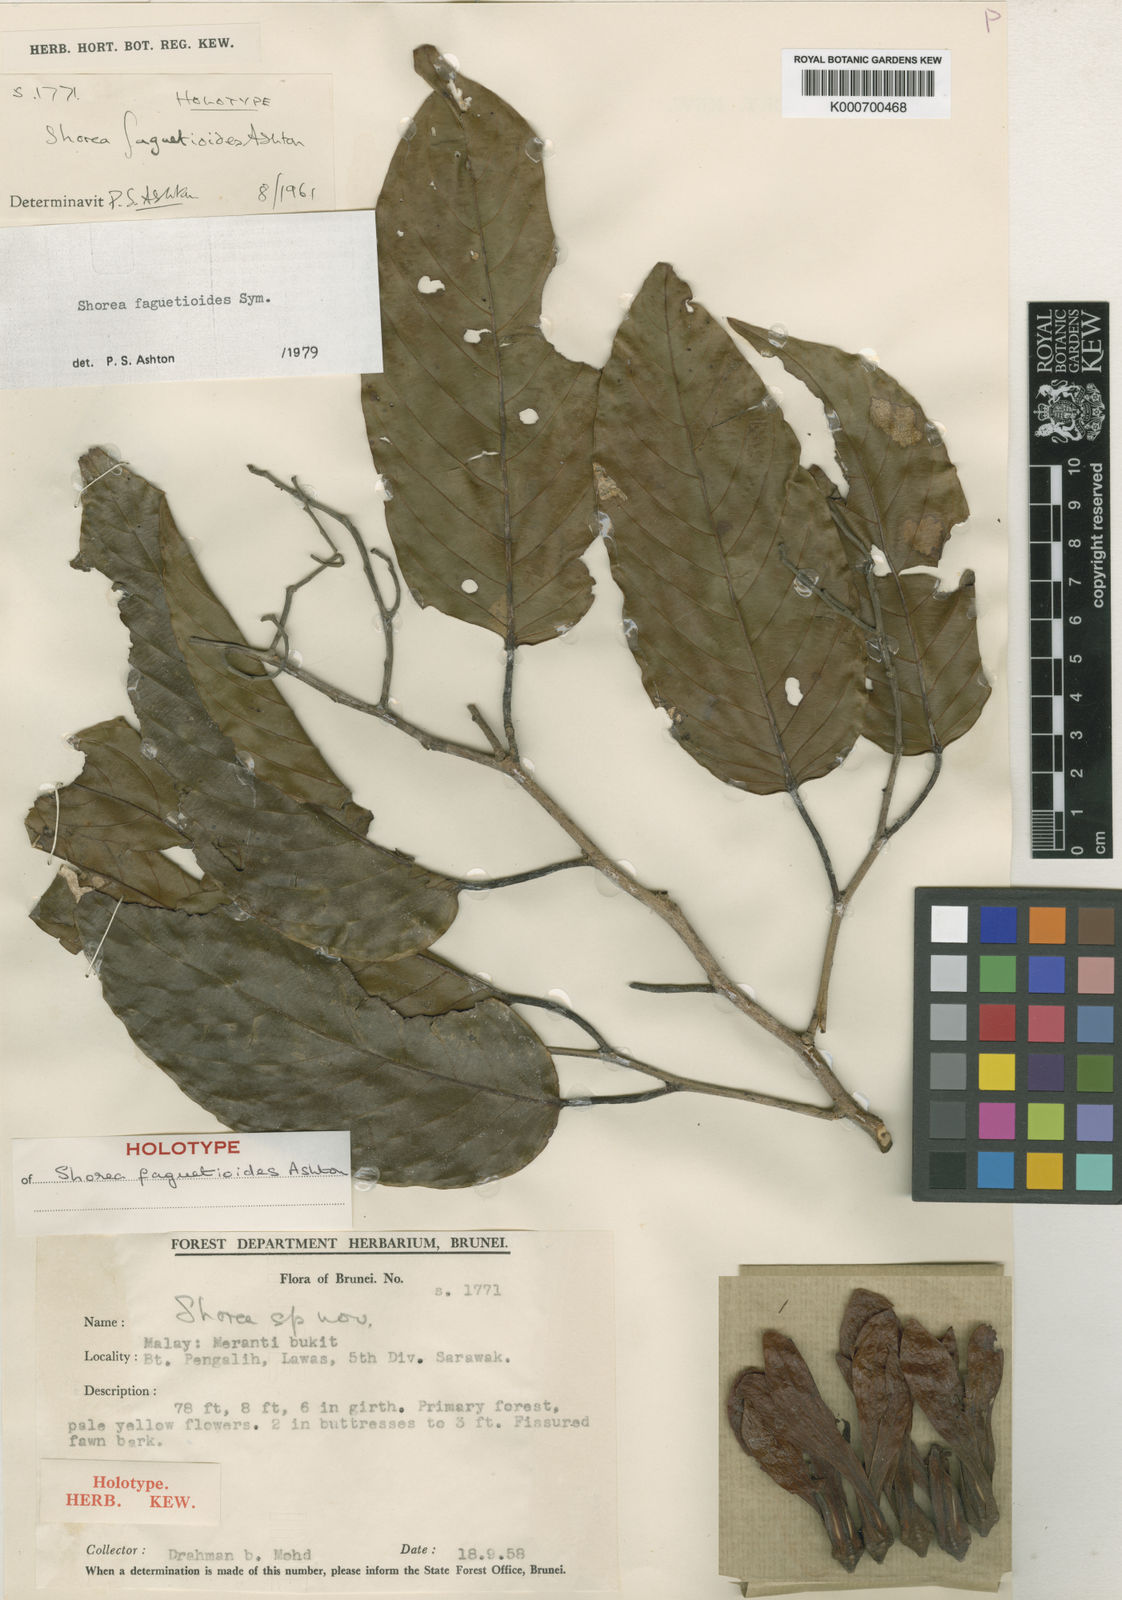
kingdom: Plantae
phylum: Tracheophyta
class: Magnoliopsida
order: Malvales
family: Dipterocarpaceae
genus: Shorea
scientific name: Shorea faguetioides
